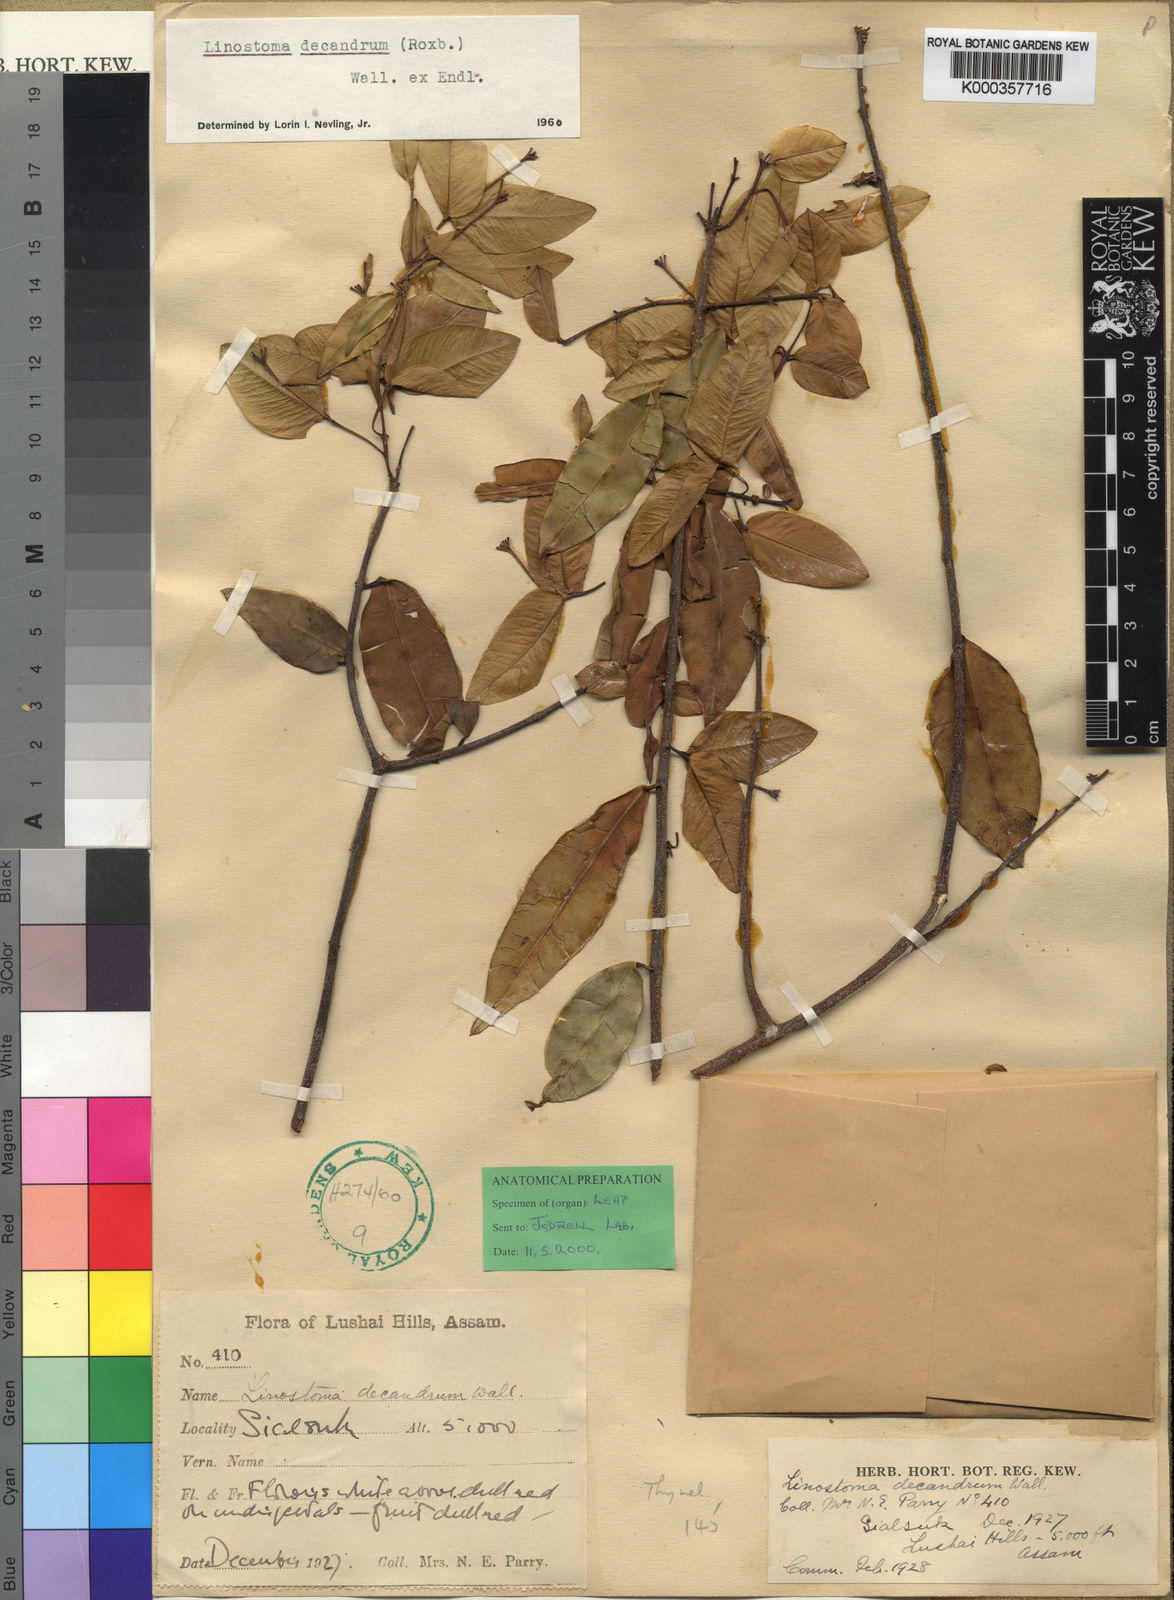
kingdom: Plantae
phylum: Tracheophyta
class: Magnoliopsida
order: Malvales
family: Thymelaeaceae
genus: Linostoma
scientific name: Linostoma
